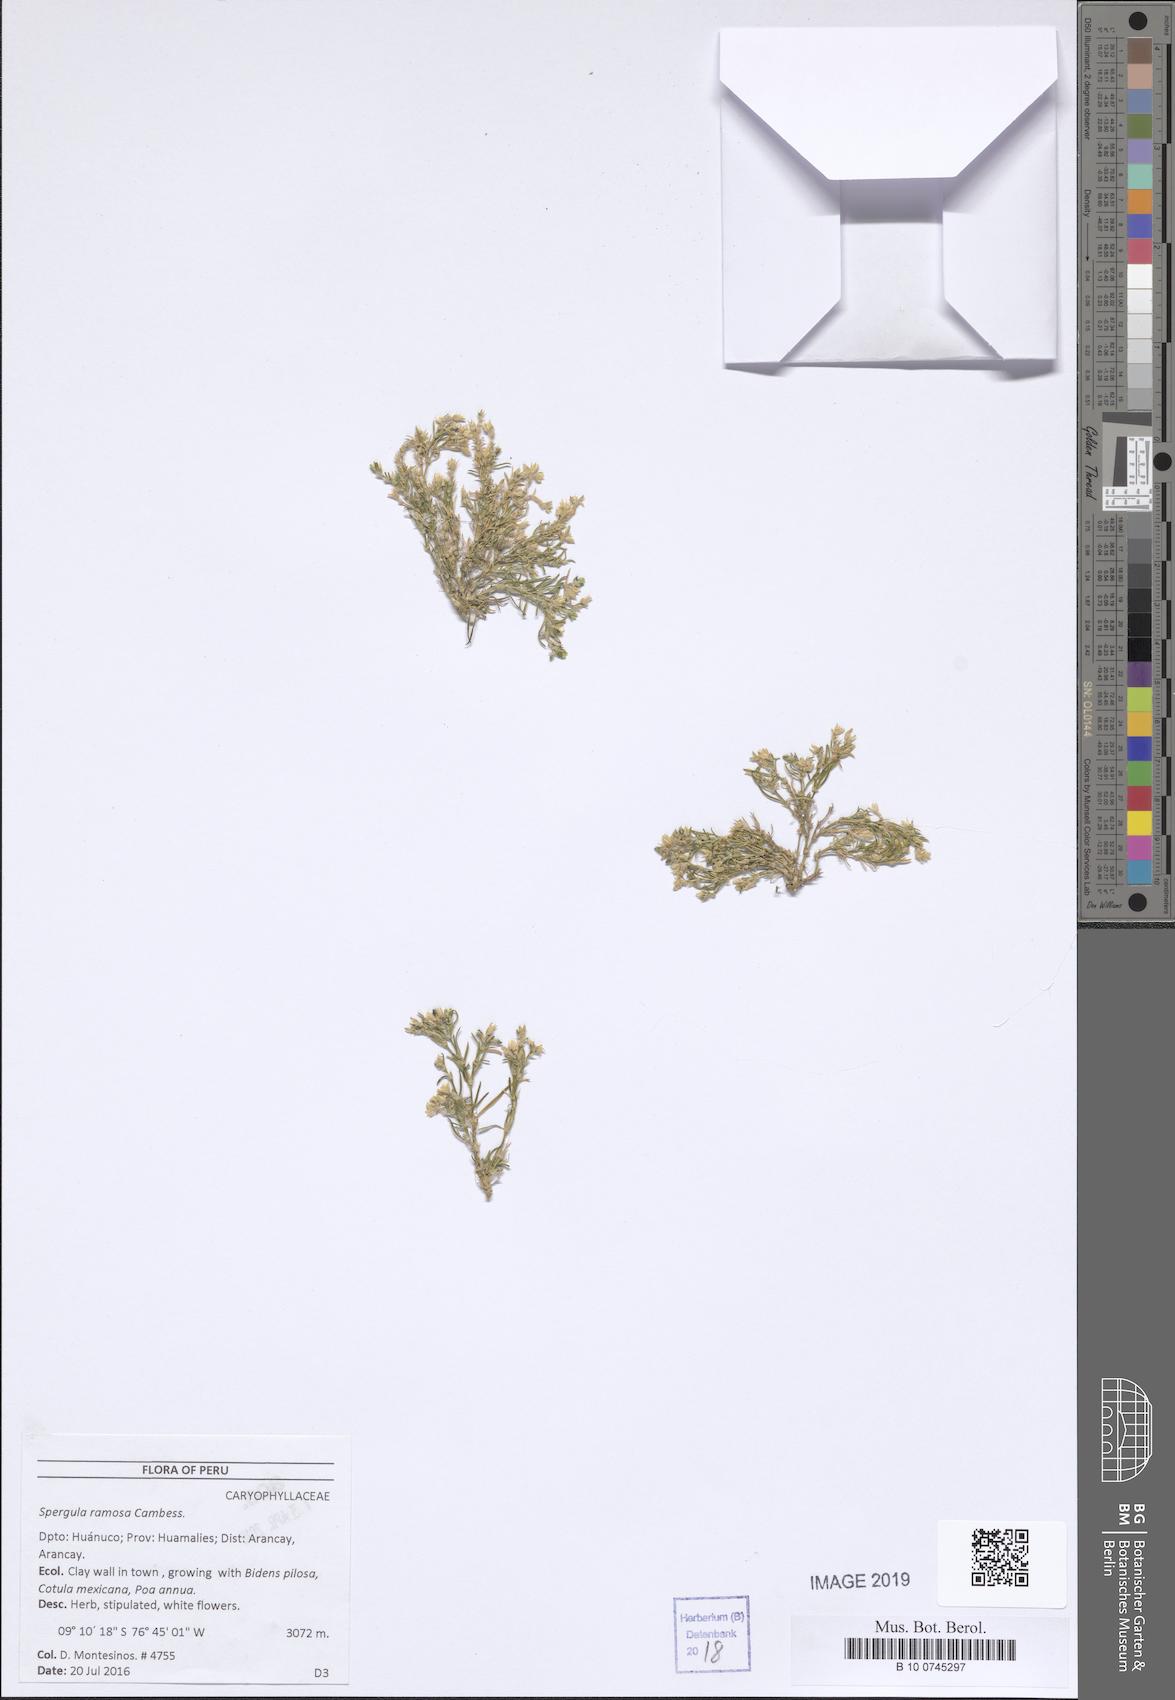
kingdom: Plantae
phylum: Tracheophyta
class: Magnoliopsida
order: Caryophyllales
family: Caryophyllaceae
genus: Spergula
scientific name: Spergula ramosa
